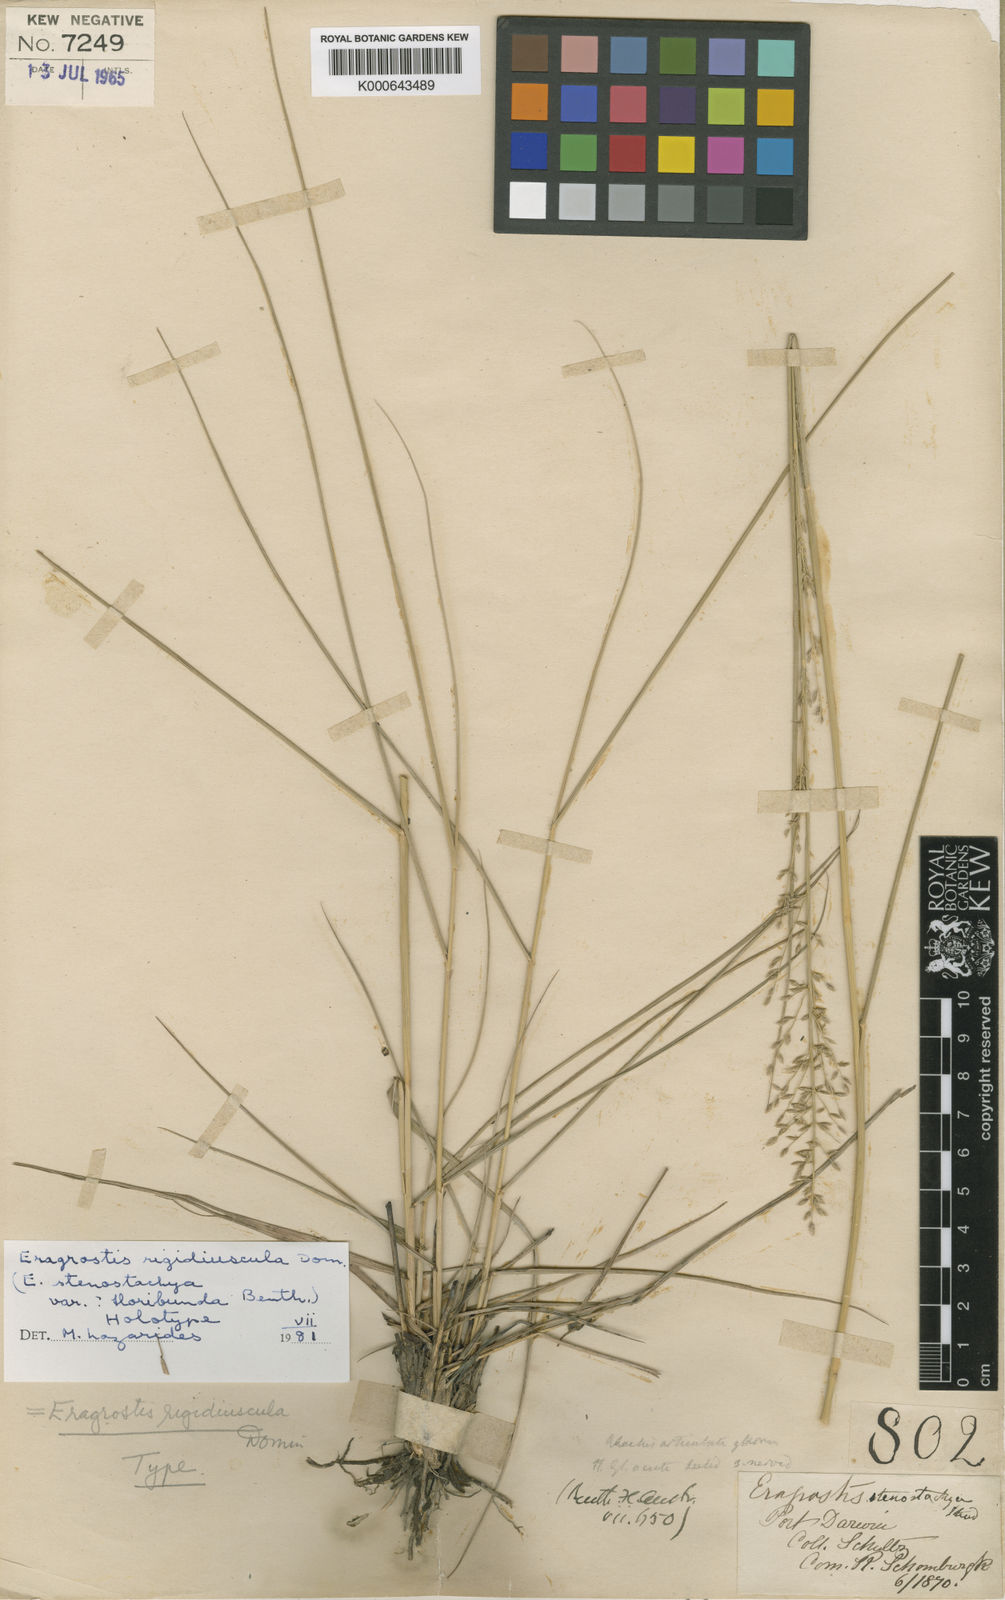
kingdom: Plantae
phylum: Tracheophyta
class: Liliopsida
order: Poales
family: Poaceae
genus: Eragrostis
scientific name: Eragrostis rigidiuscula
